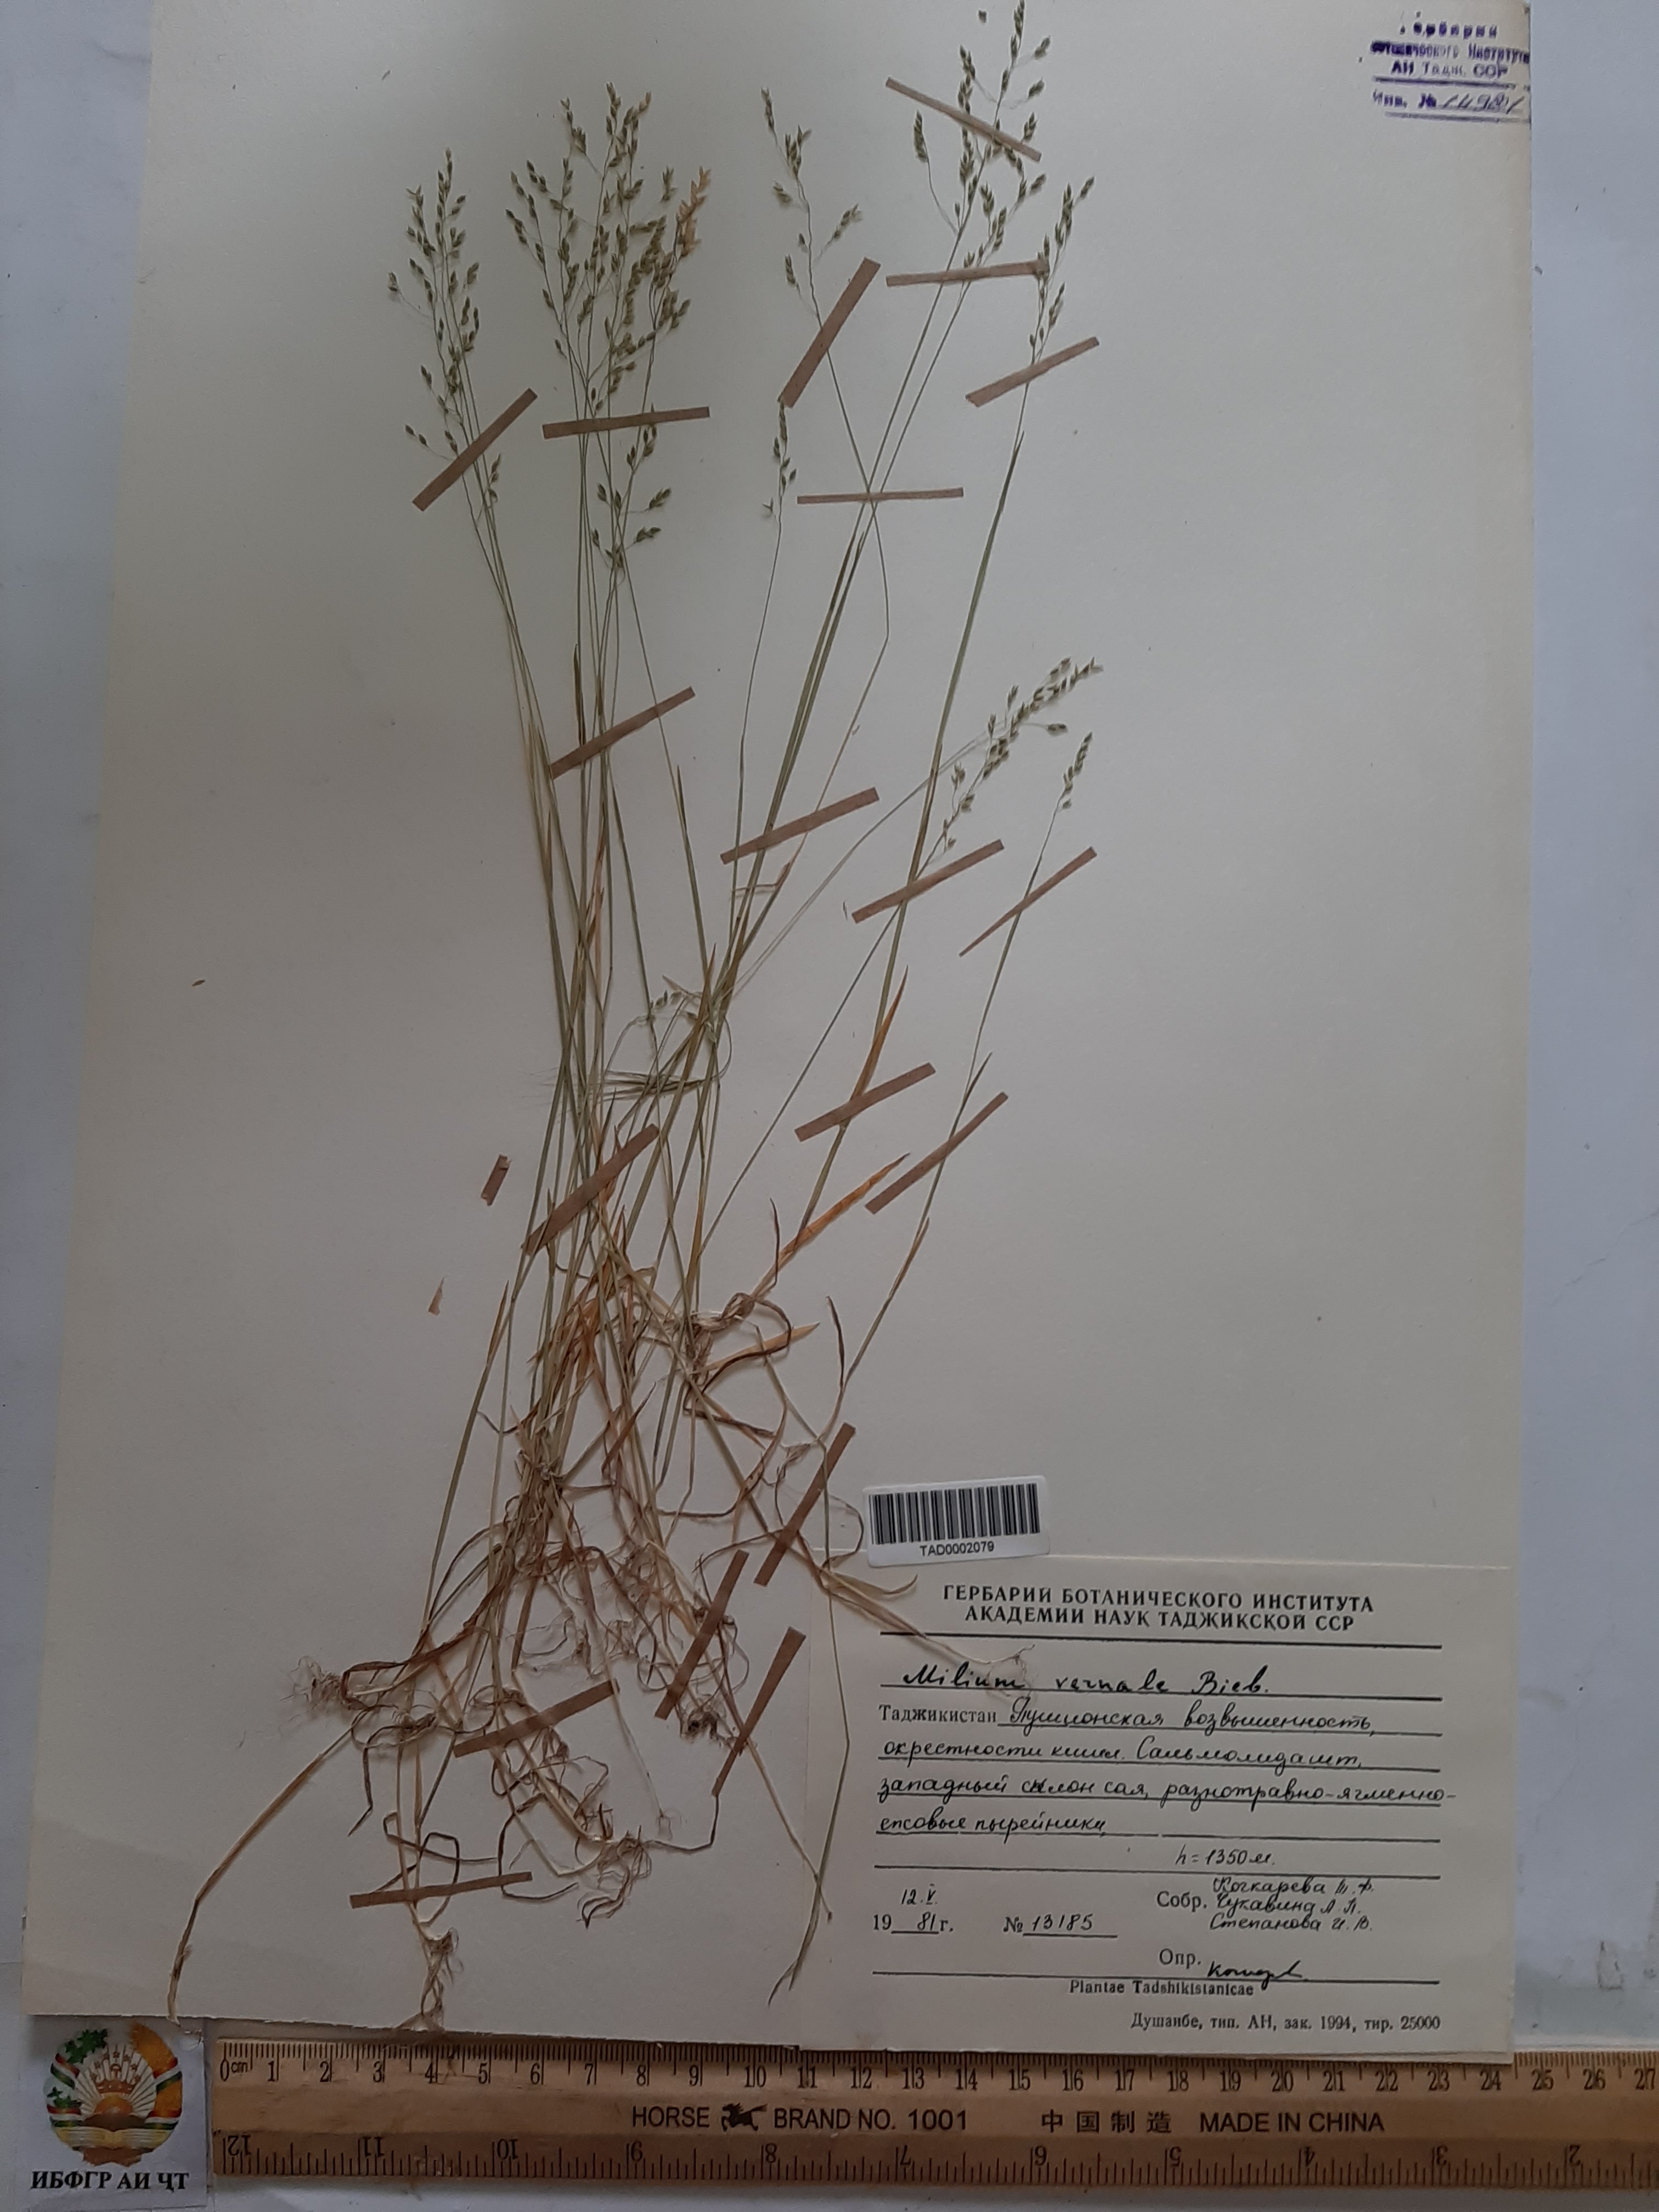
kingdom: Plantae
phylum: Tracheophyta
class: Liliopsida
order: Poales
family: Poaceae
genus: Milium
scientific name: Milium vernale
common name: Early millet
